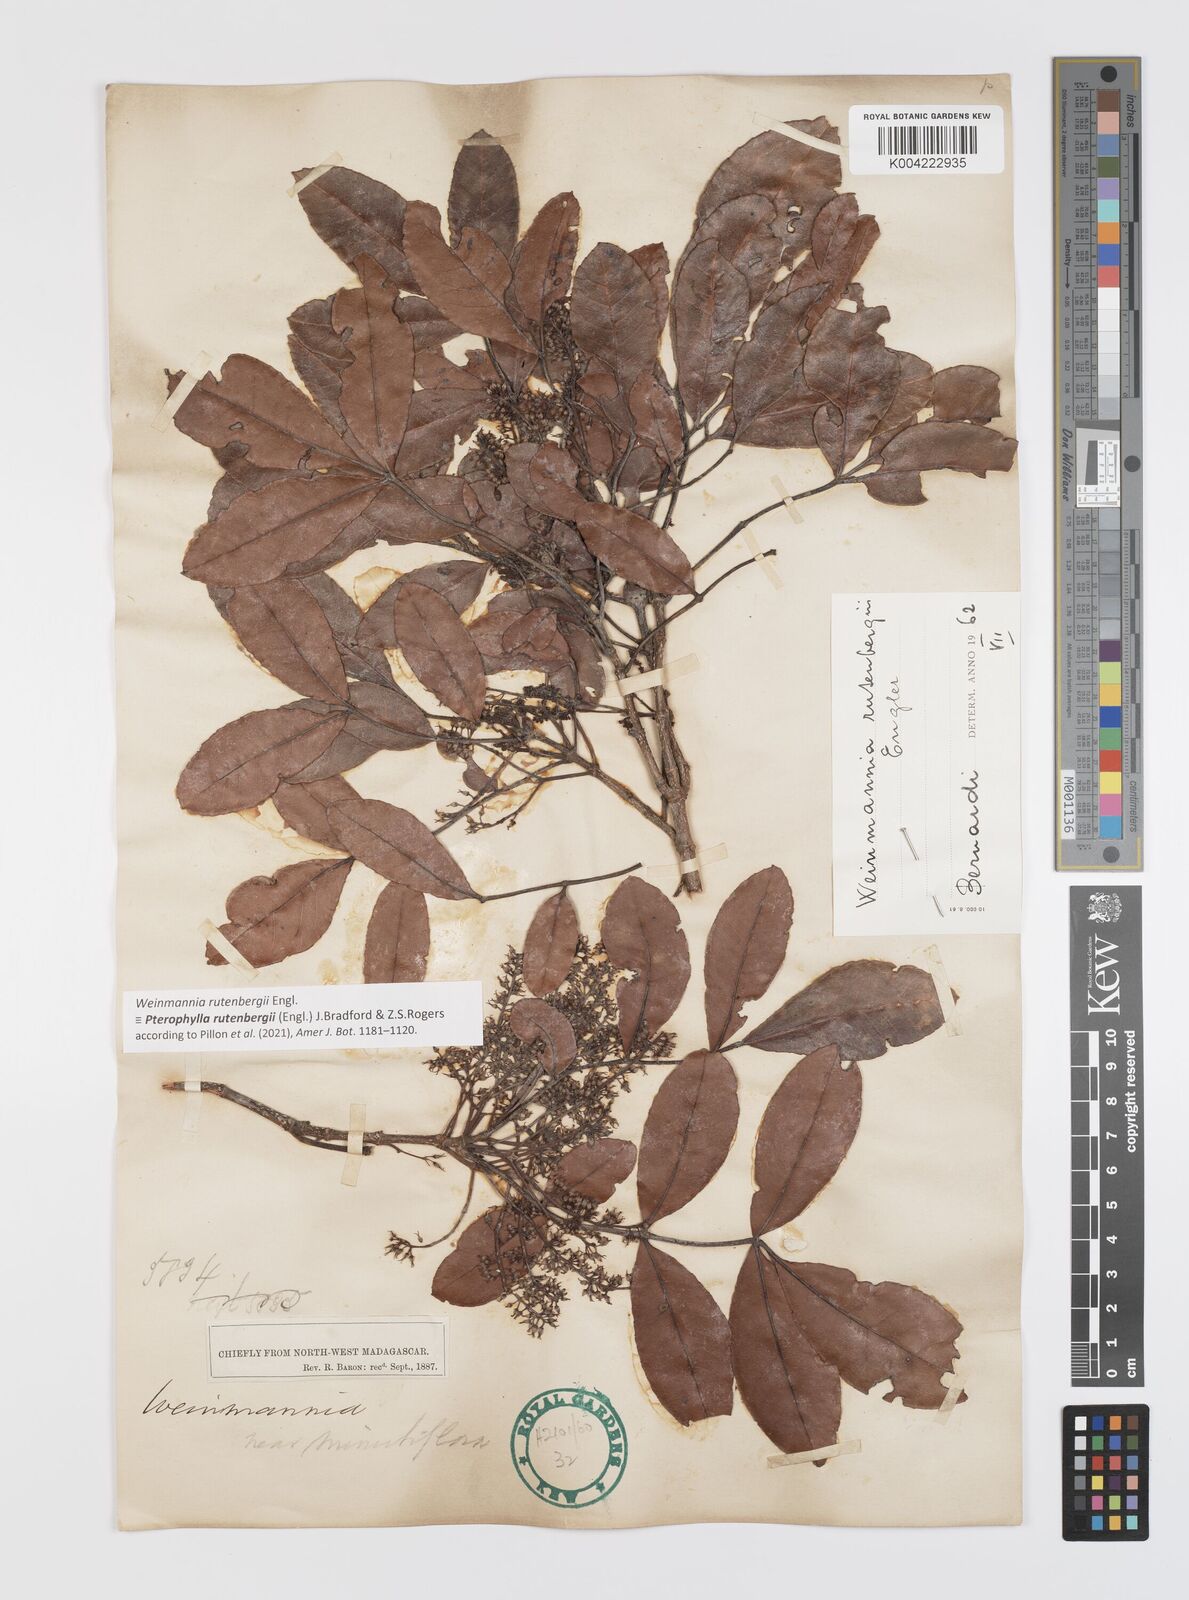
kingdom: Plantae
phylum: Tracheophyta
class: Magnoliopsida
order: Oxalidales
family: Cunoniaceae
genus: Pterophylla
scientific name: Pterophylla rutenbergii
